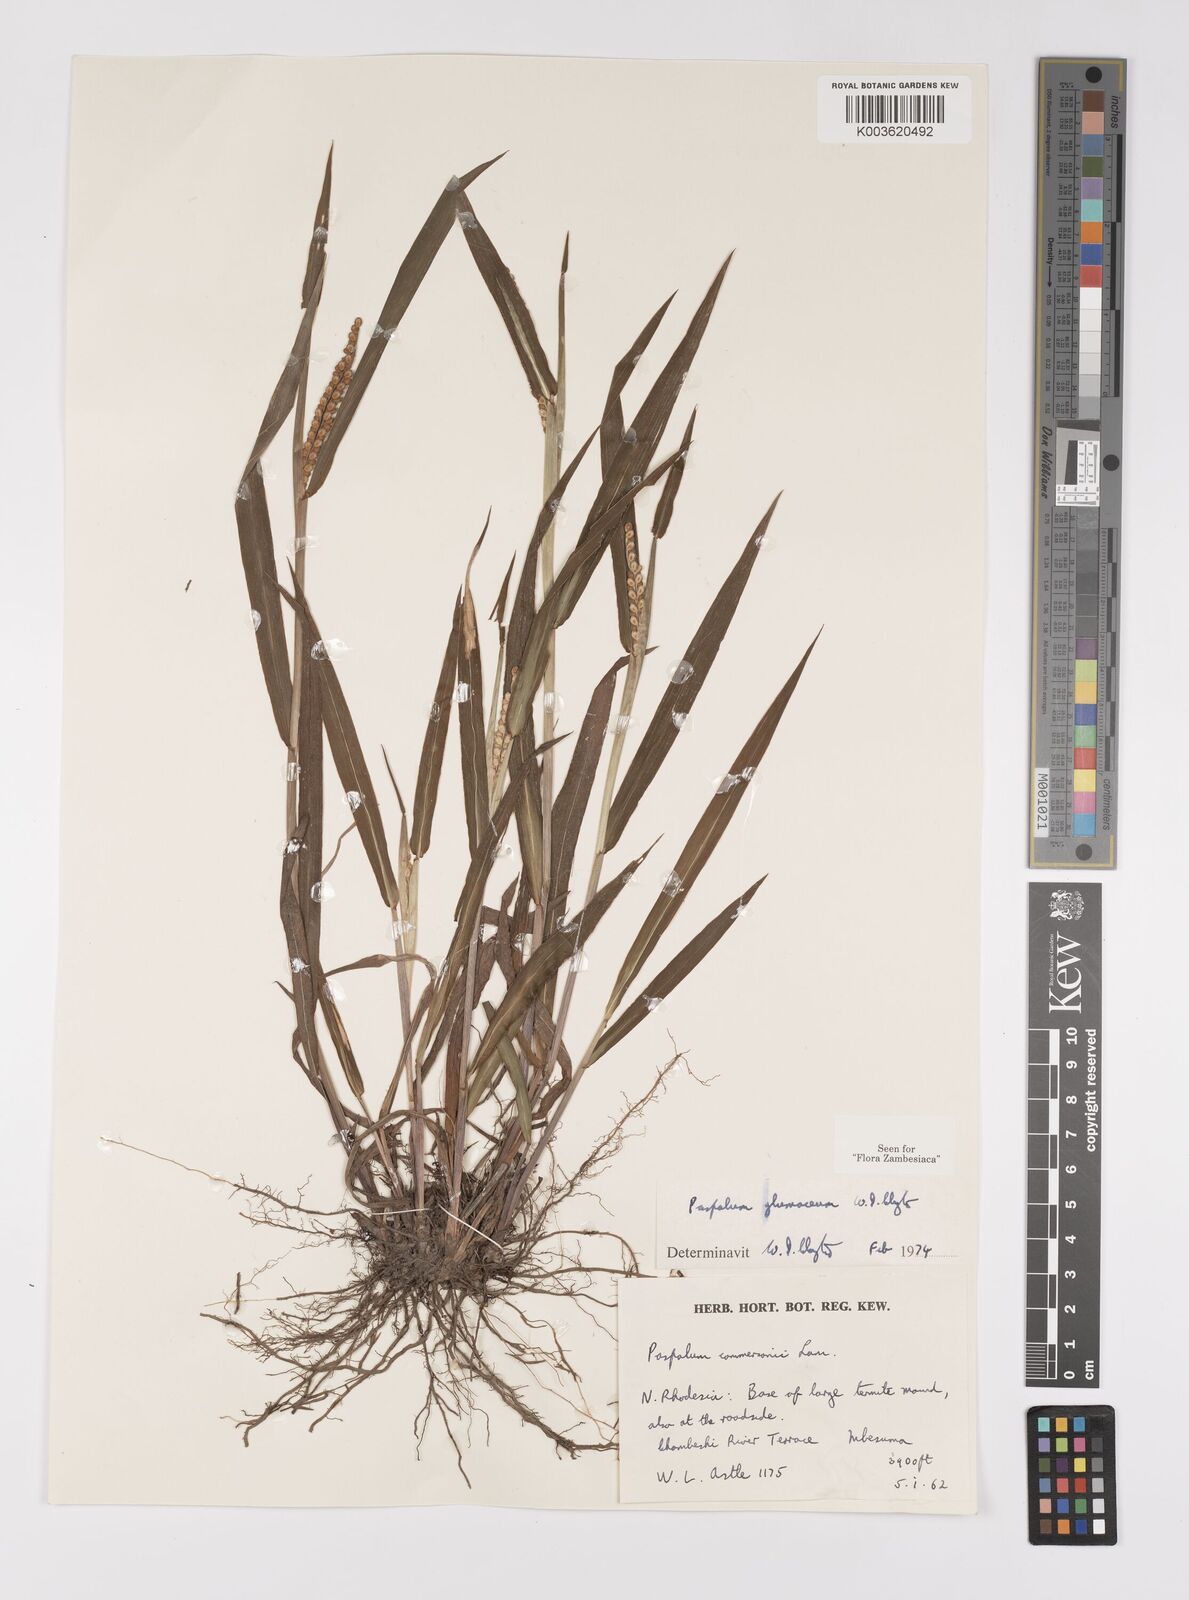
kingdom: Plantae
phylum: Tracheophyta
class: Liliopsida
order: Poales
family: Poaceae
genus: Paspalum
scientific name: Paspalum glumaceum
